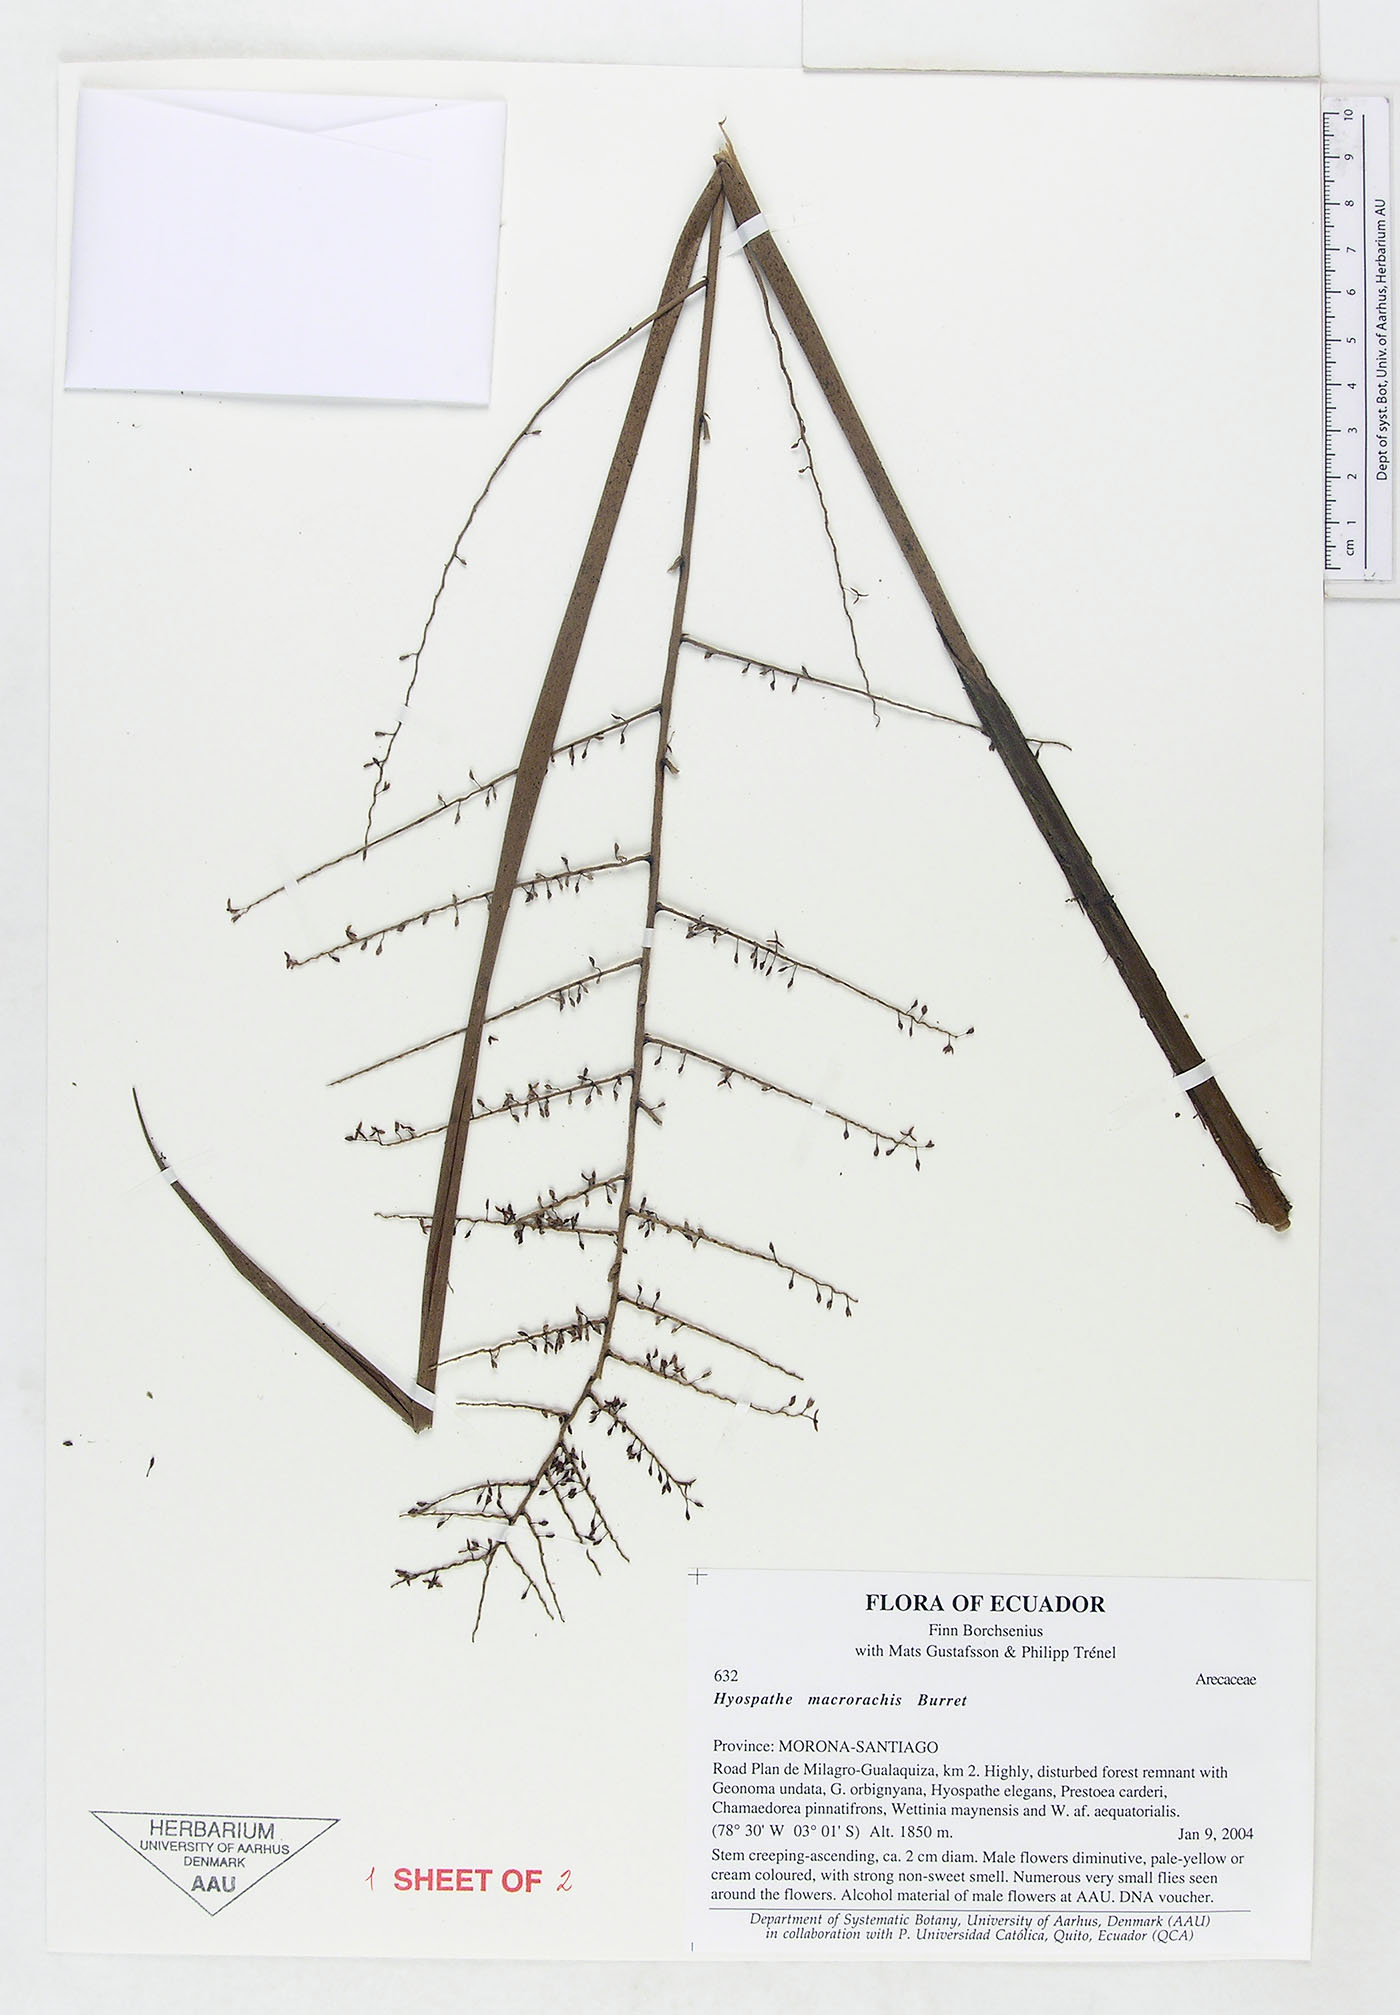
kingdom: Plantae
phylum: Tracheophyta
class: Liliopsida
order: Arecales
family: Arecaceae
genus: Hyospathe
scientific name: Hyospathe macrorhachis
